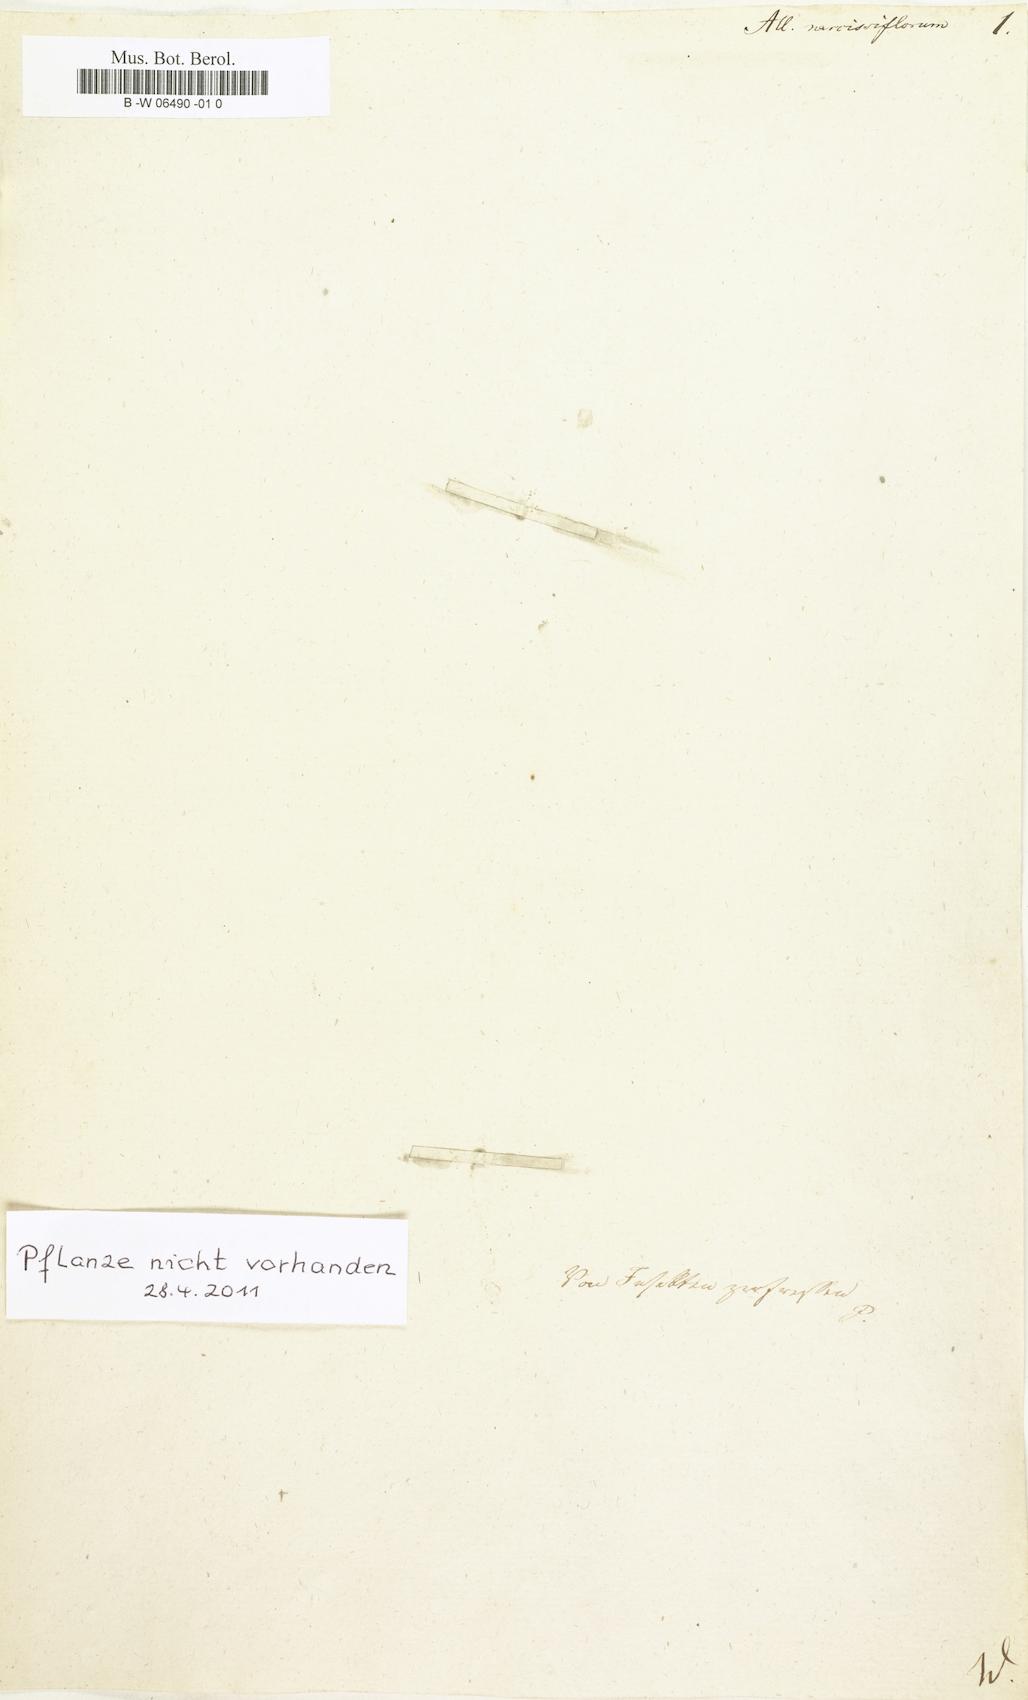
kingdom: Plantae
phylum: Tracheophyta
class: Liliopsida
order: Asparagales
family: Amaryllidaceae
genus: Allium
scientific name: Allium narcissiflorum
